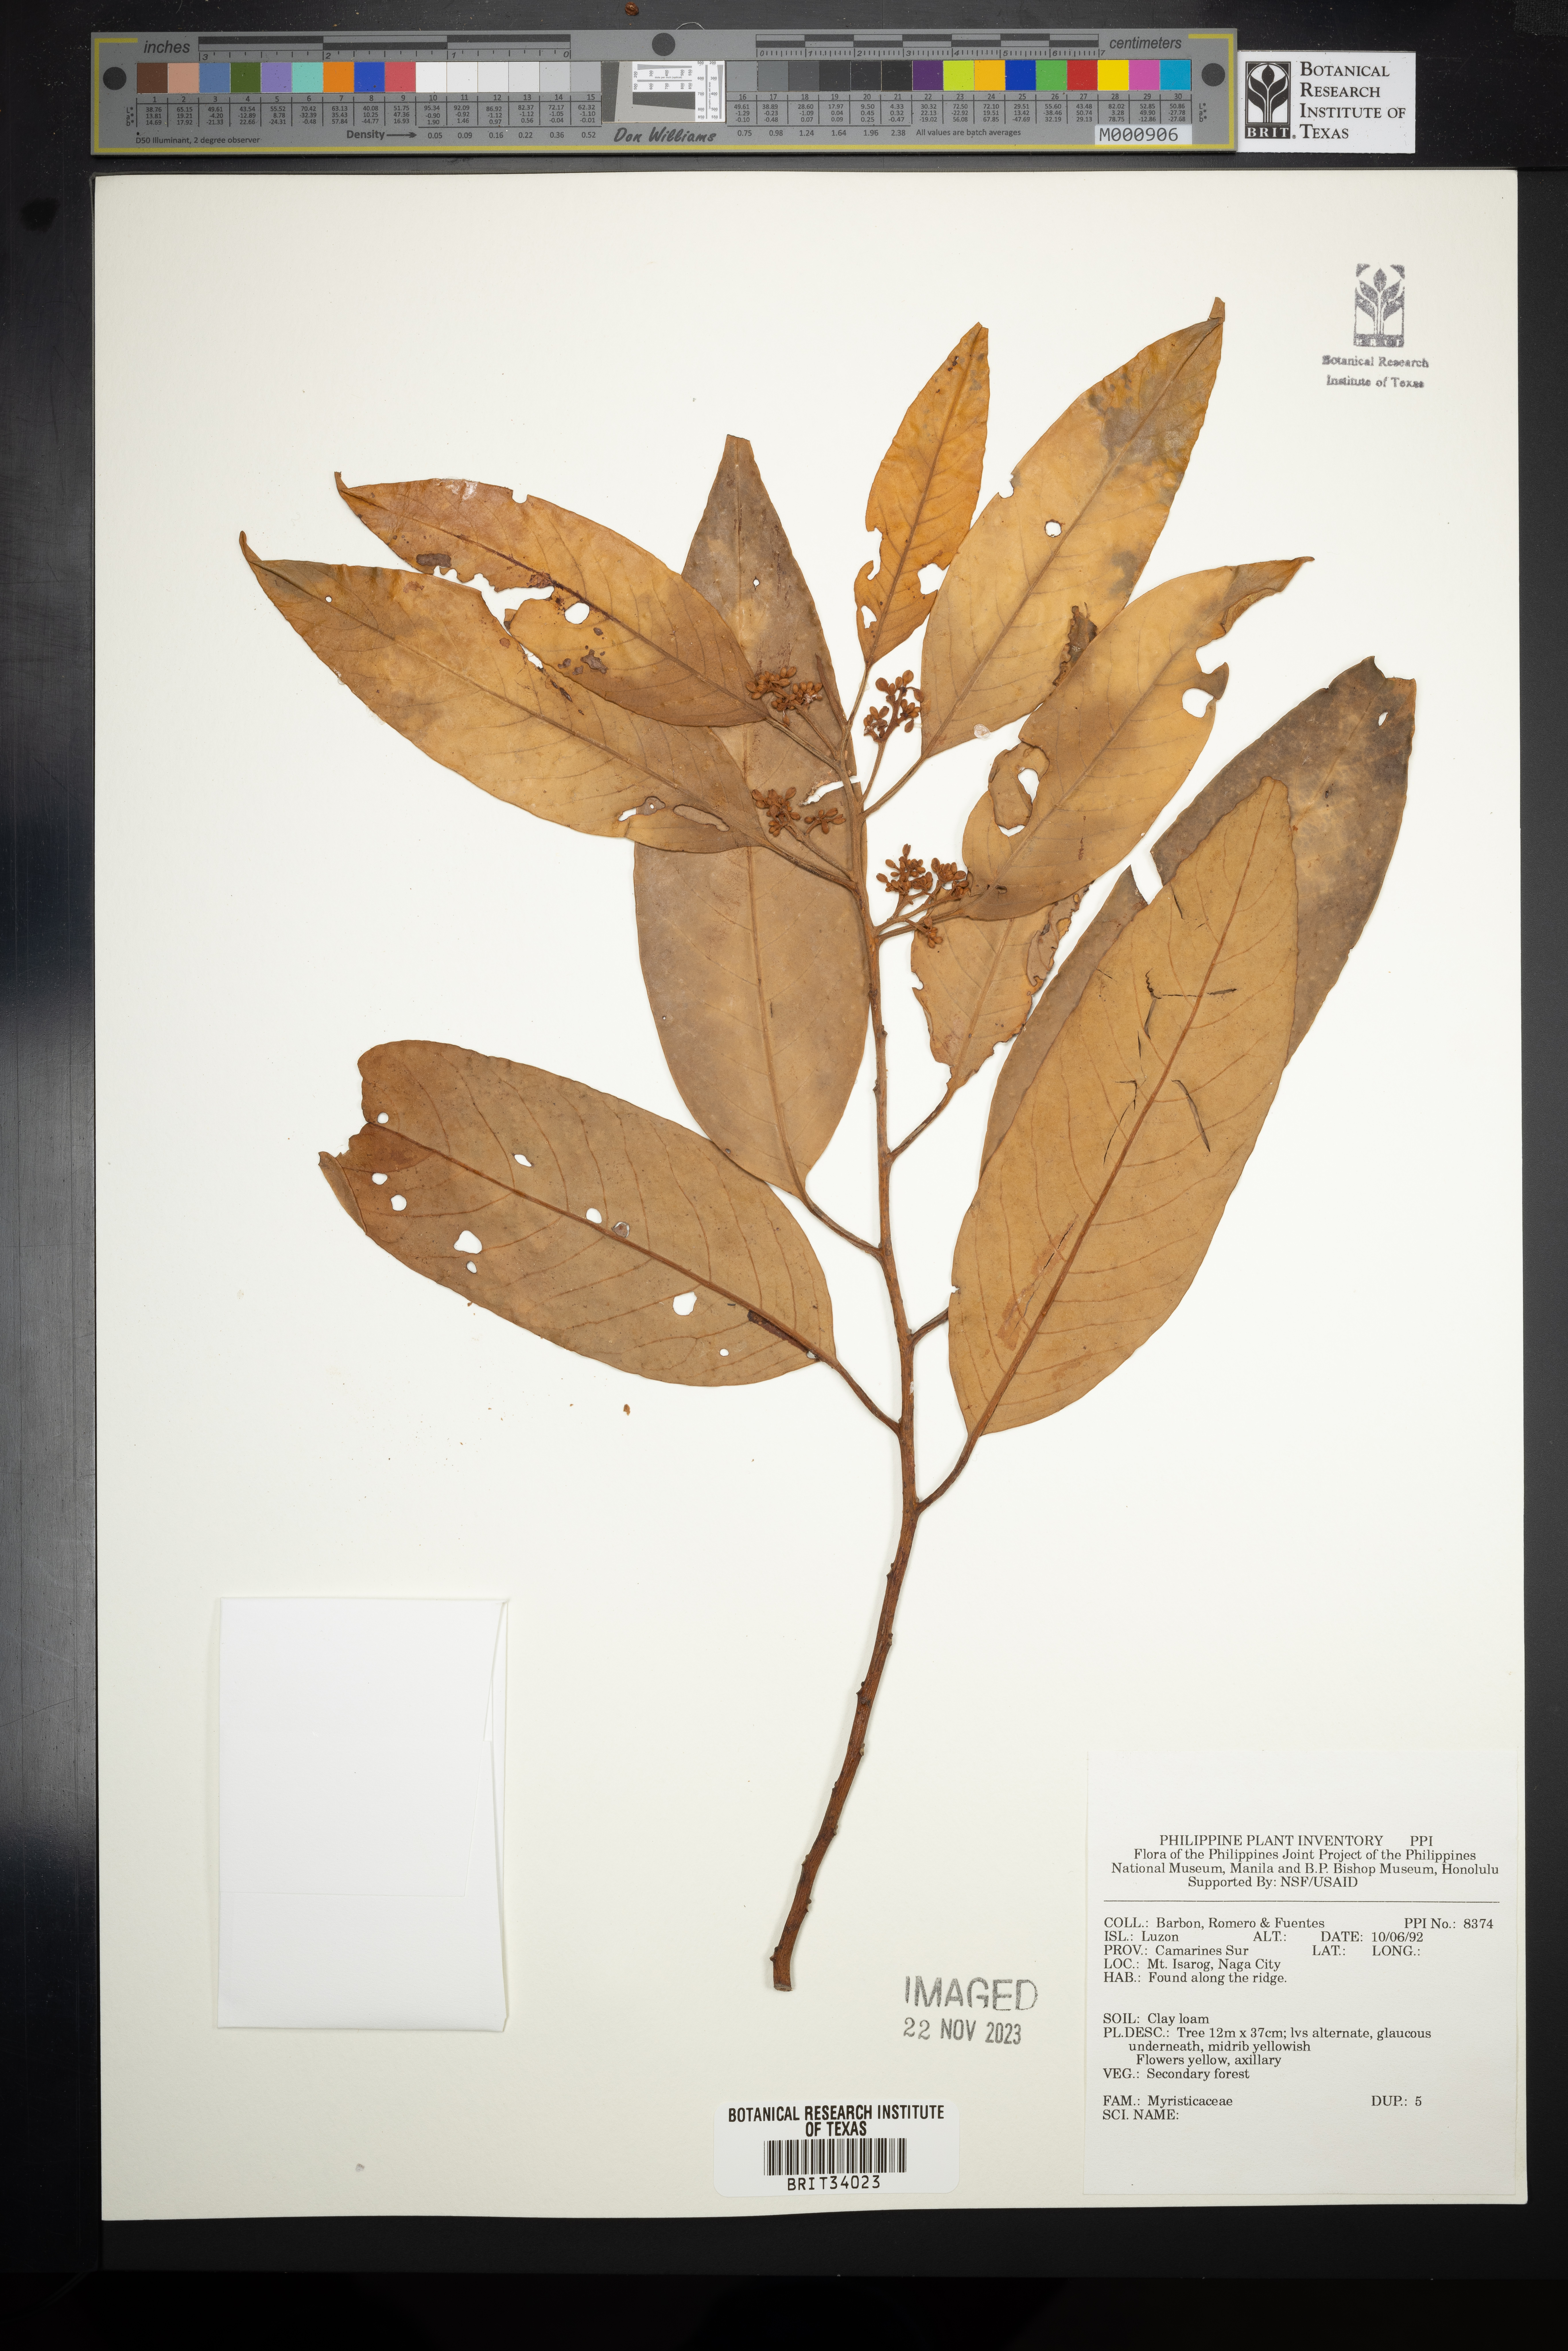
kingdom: Plantae
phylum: Tracheophyta
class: Magnoliopsida
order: Magnoliales
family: Myristicaceae
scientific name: Myristicaceae
